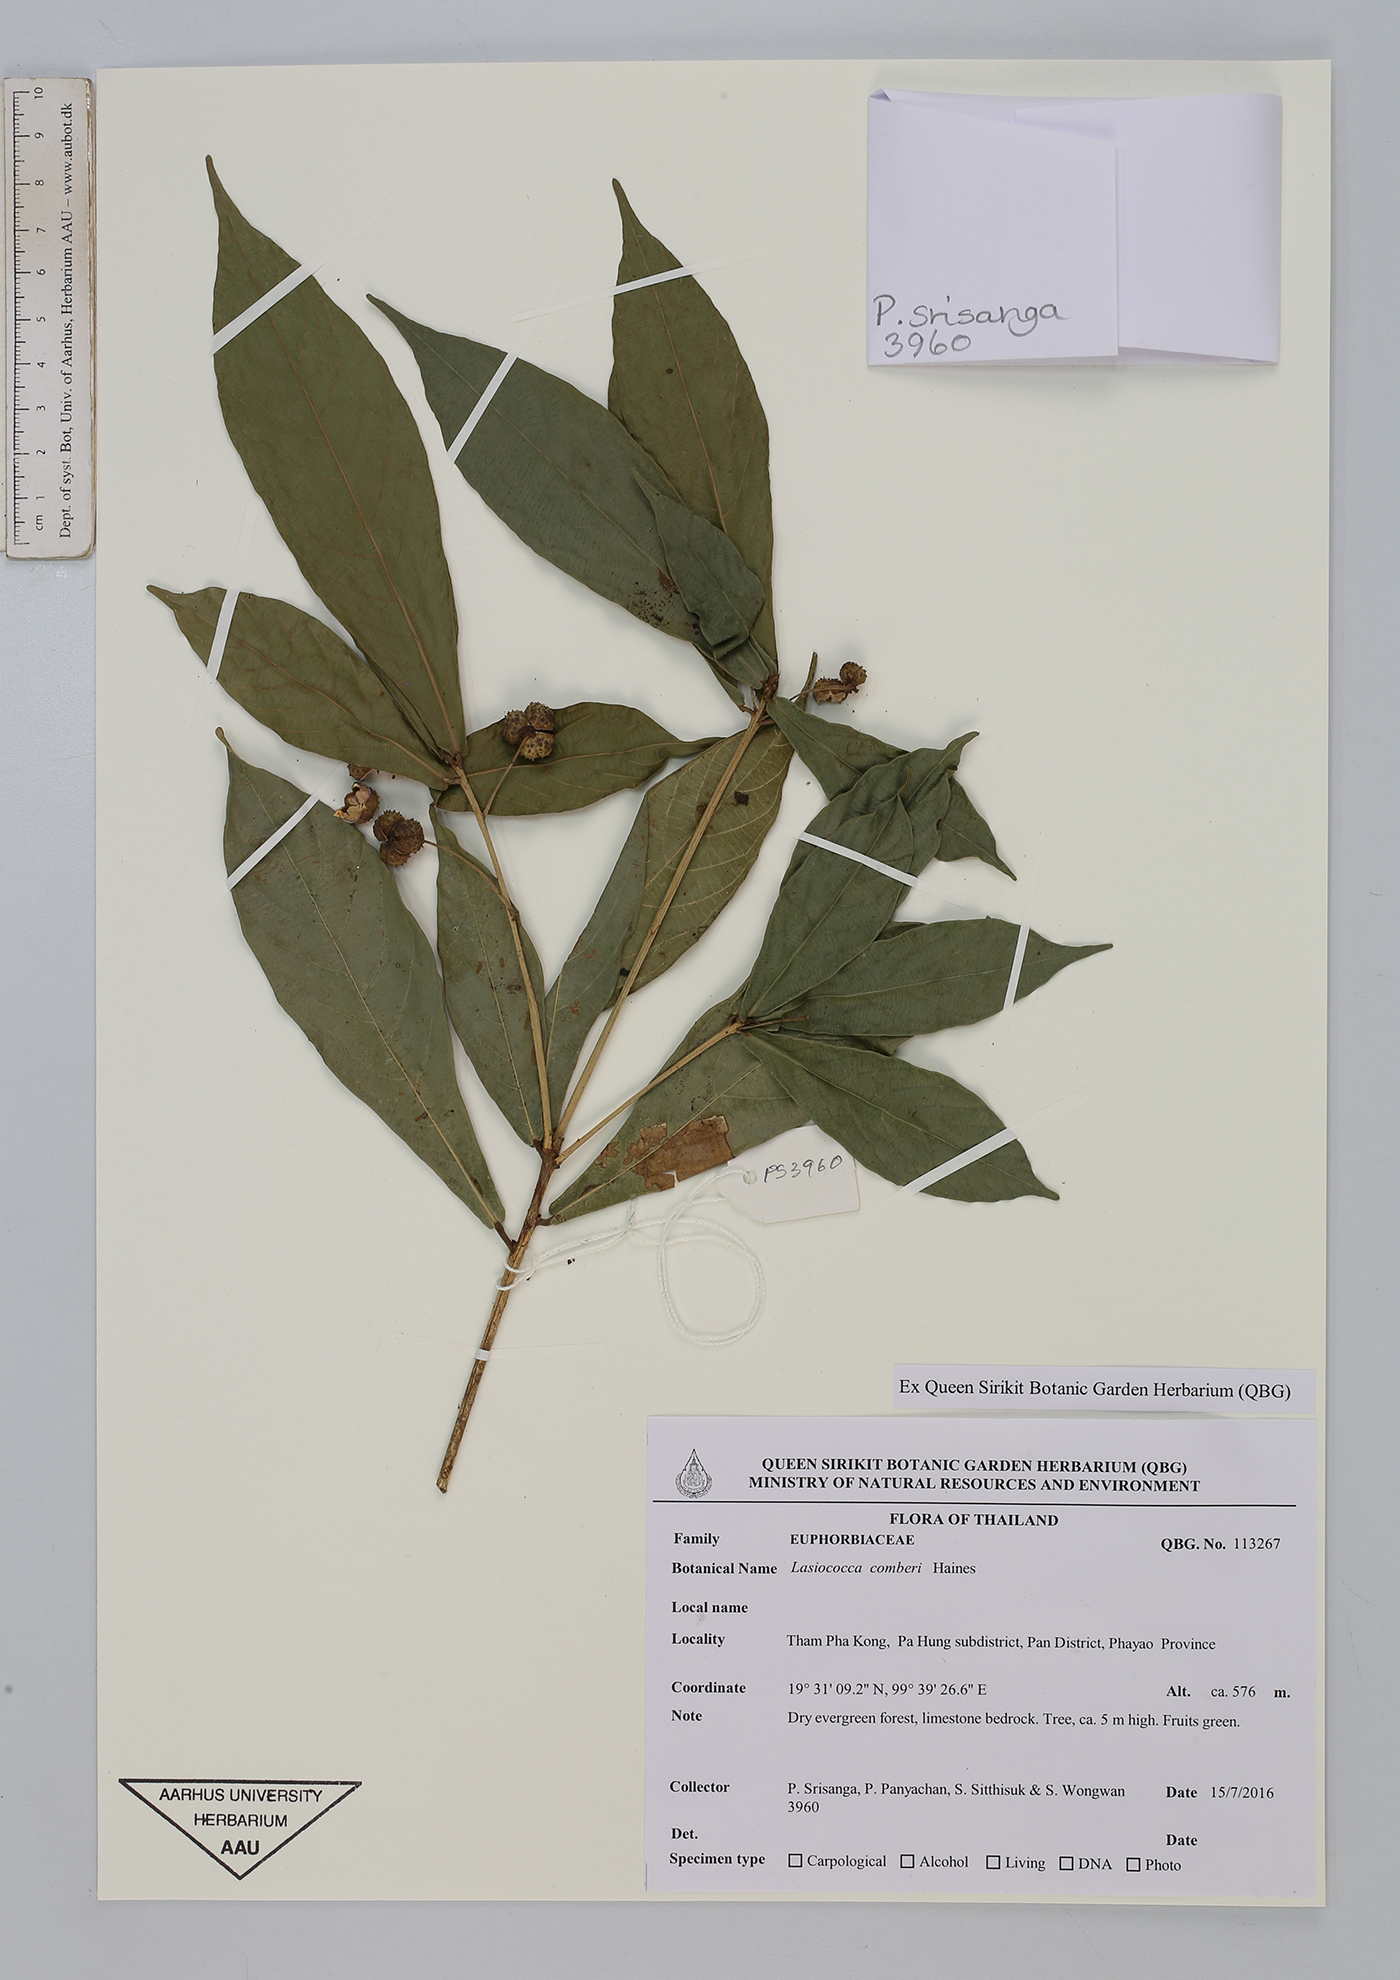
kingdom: Plantae
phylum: Tracheophyta
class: Magnoliopsida
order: Malpighiales
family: Euphorbiaceae
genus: Lasiococca
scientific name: Lasiococca comberi
